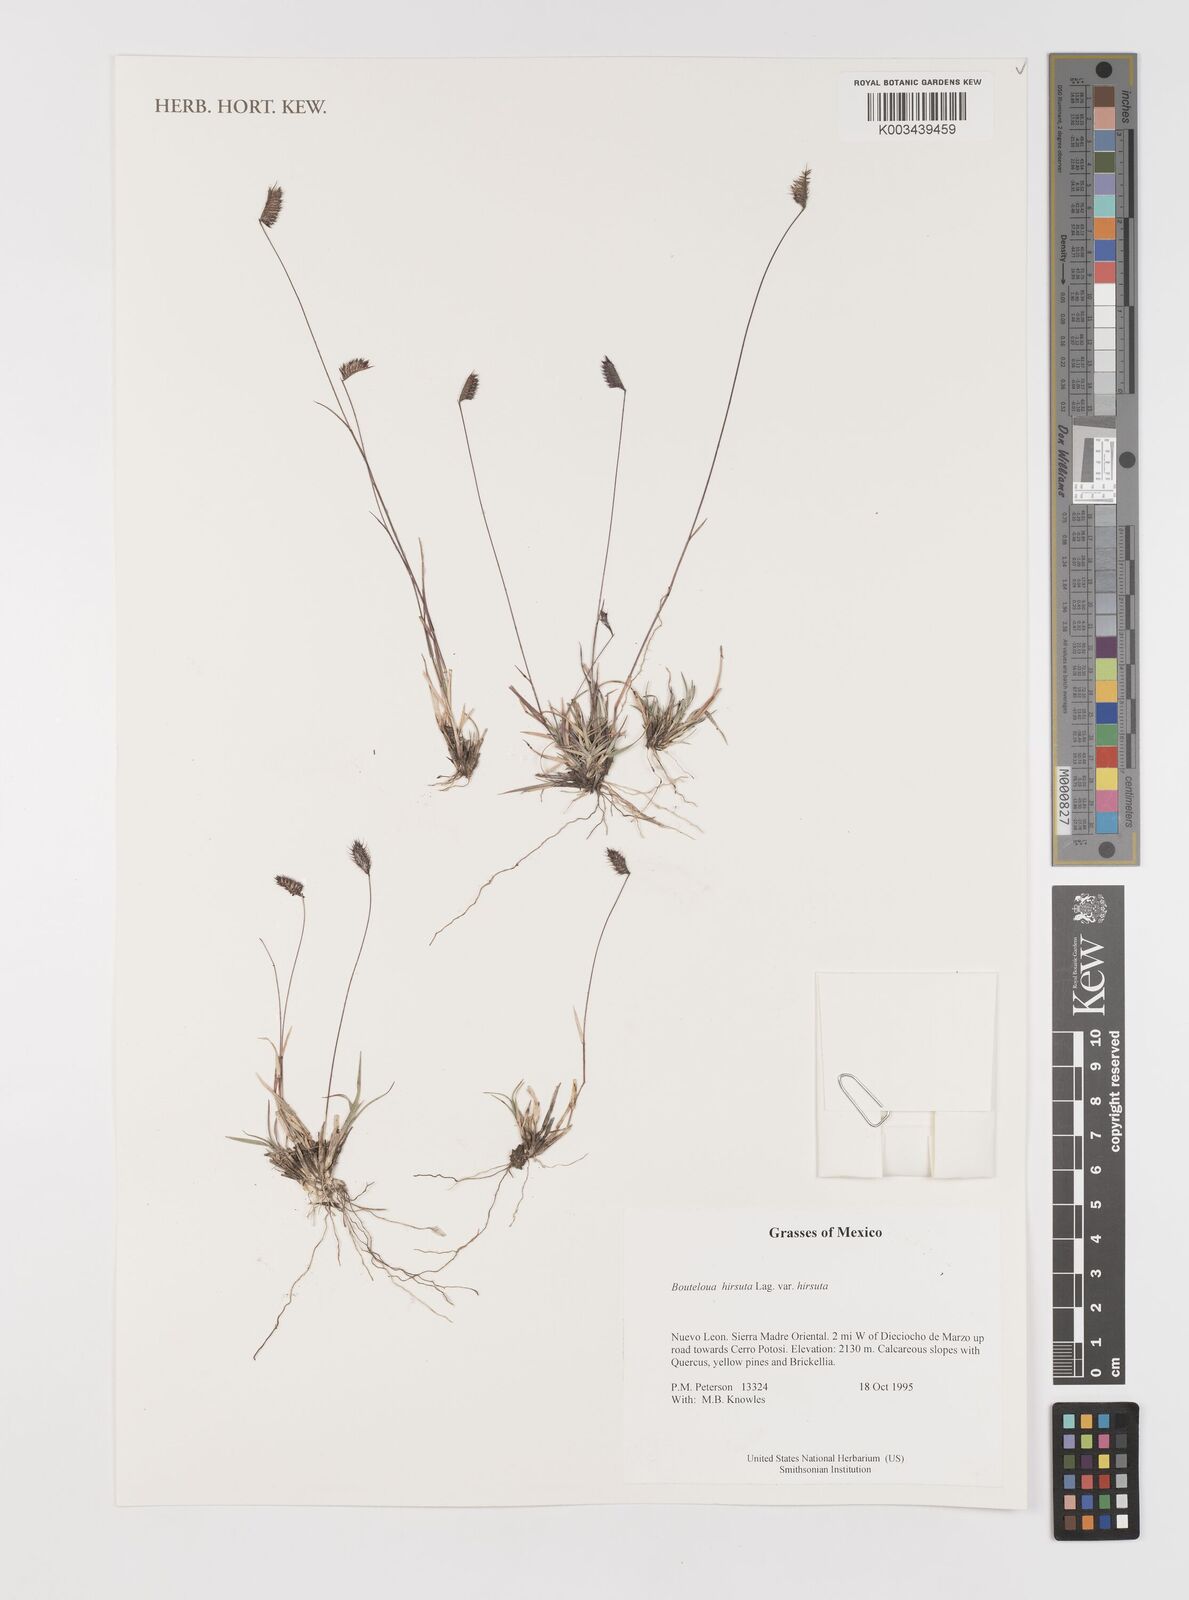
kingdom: Plantae
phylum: Tracheophyta
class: Liliopsida
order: Poales
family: Poaceae
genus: Bouteloua
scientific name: Bouteloua hirsuta
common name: Hairy grama
